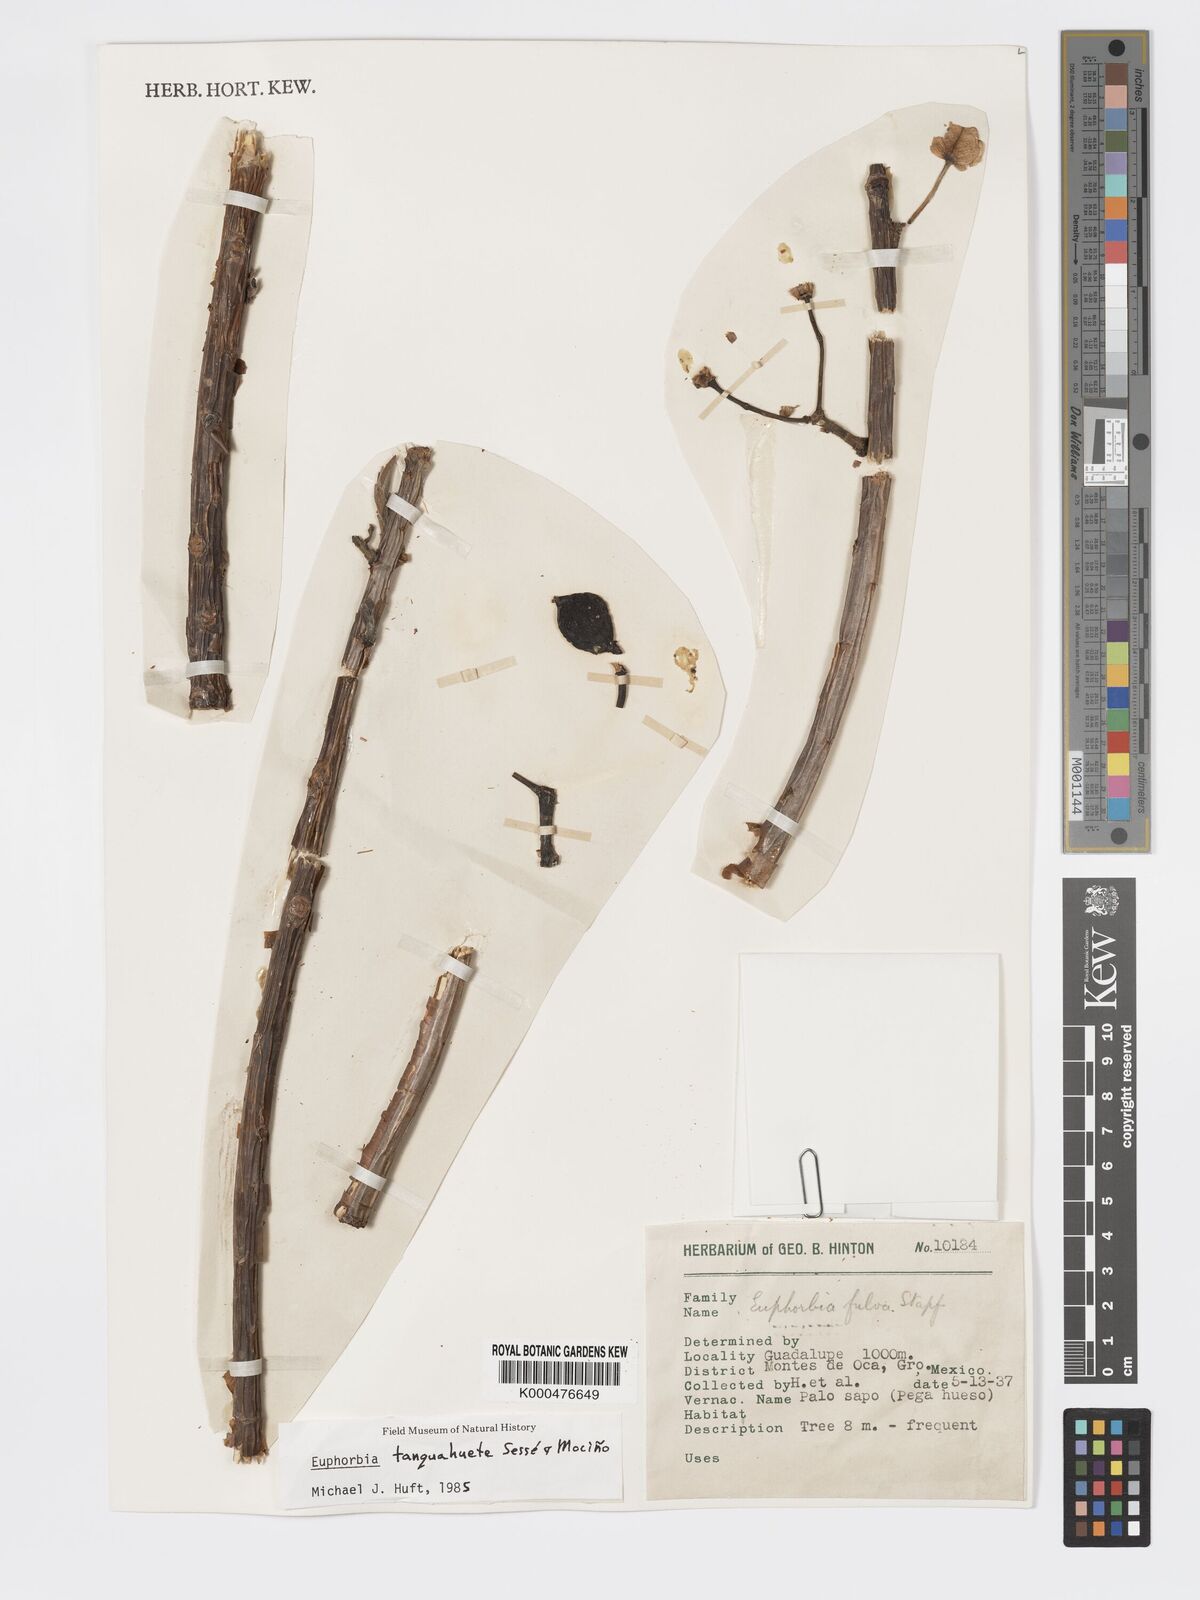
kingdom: Plantae
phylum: Tracheophyta
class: Magnoliopsida
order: Malpighiales
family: Euphorbiaceae
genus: Euphorbia
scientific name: Euphorbia
